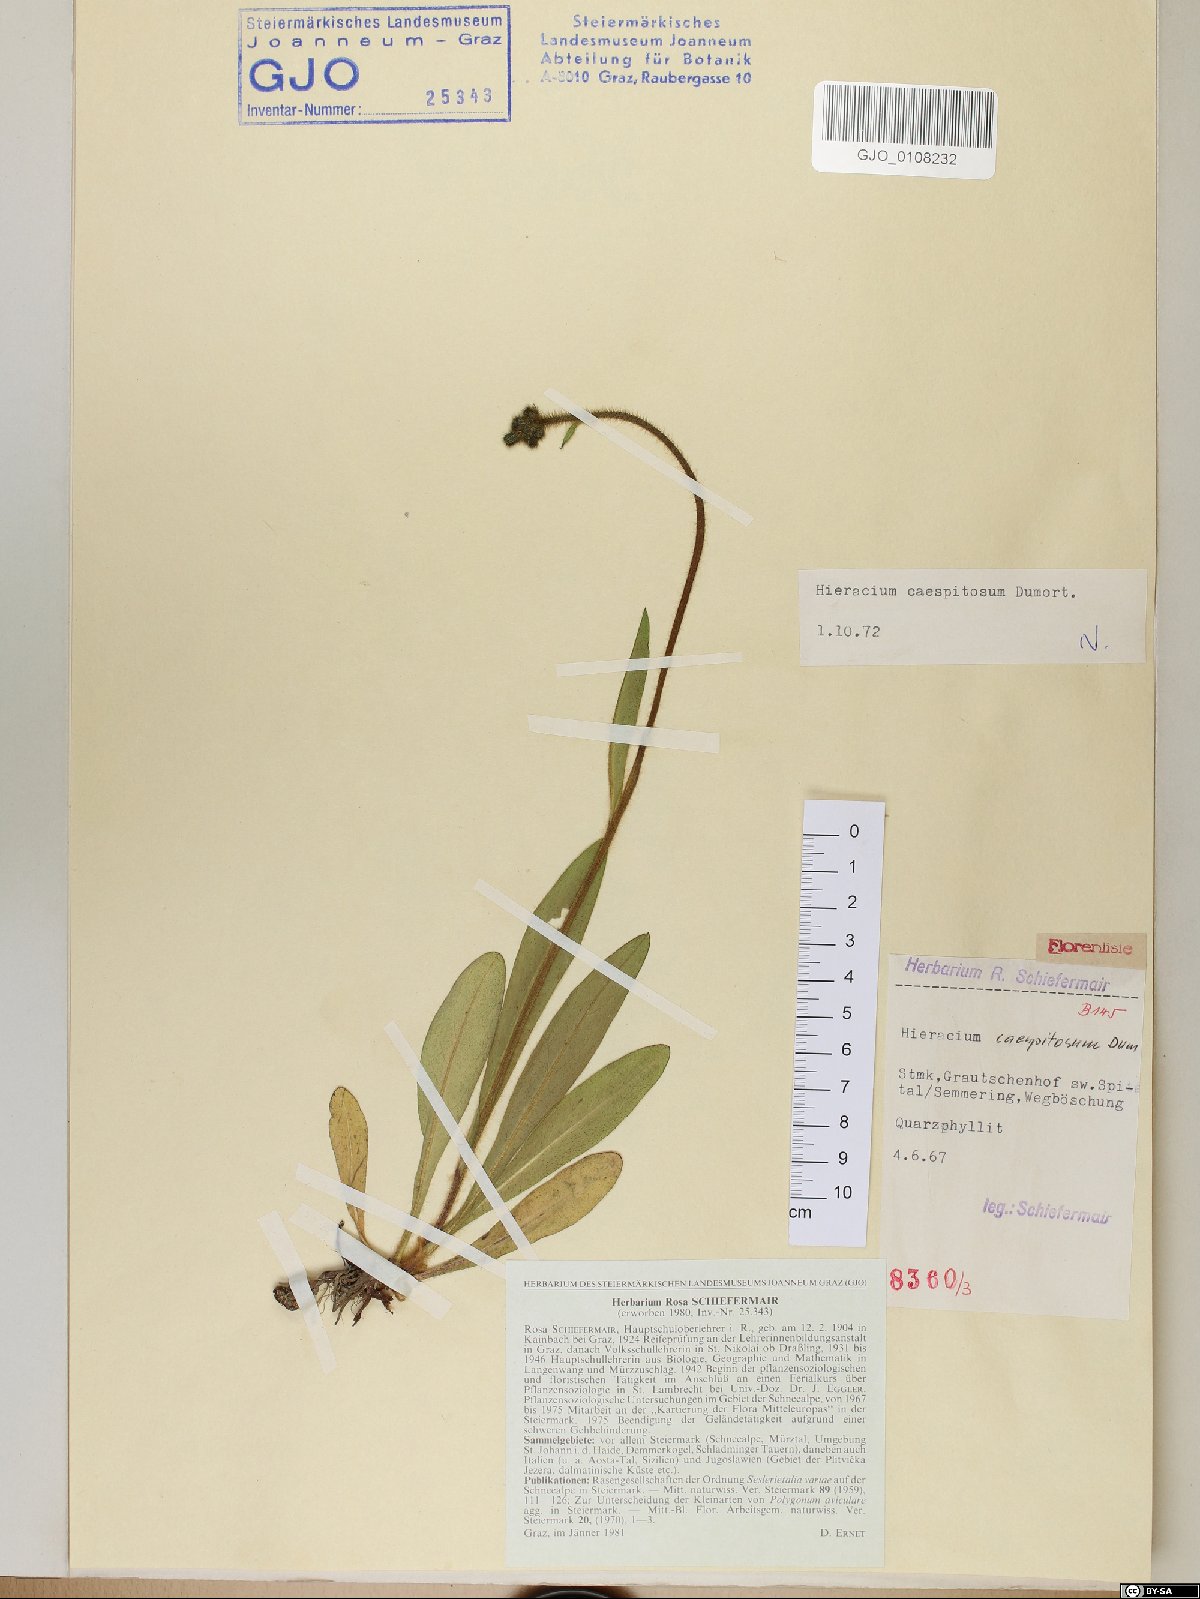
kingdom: Plantae
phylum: Tracheophyta
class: Magnoliopsida
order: Asterales
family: Asteraceae
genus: Pilosella
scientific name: Pilosella caespitosa
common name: Yellow fox-and-cubs
